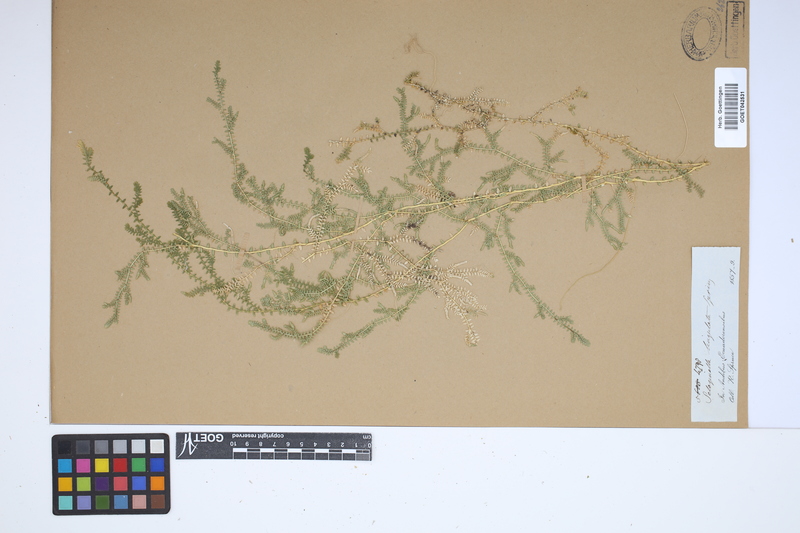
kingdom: Plantae
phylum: Tracheophyta
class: Lycopodiopsida
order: Selaginellales
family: Selaginellaceae
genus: Selaginella
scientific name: Selaginella lingulata
